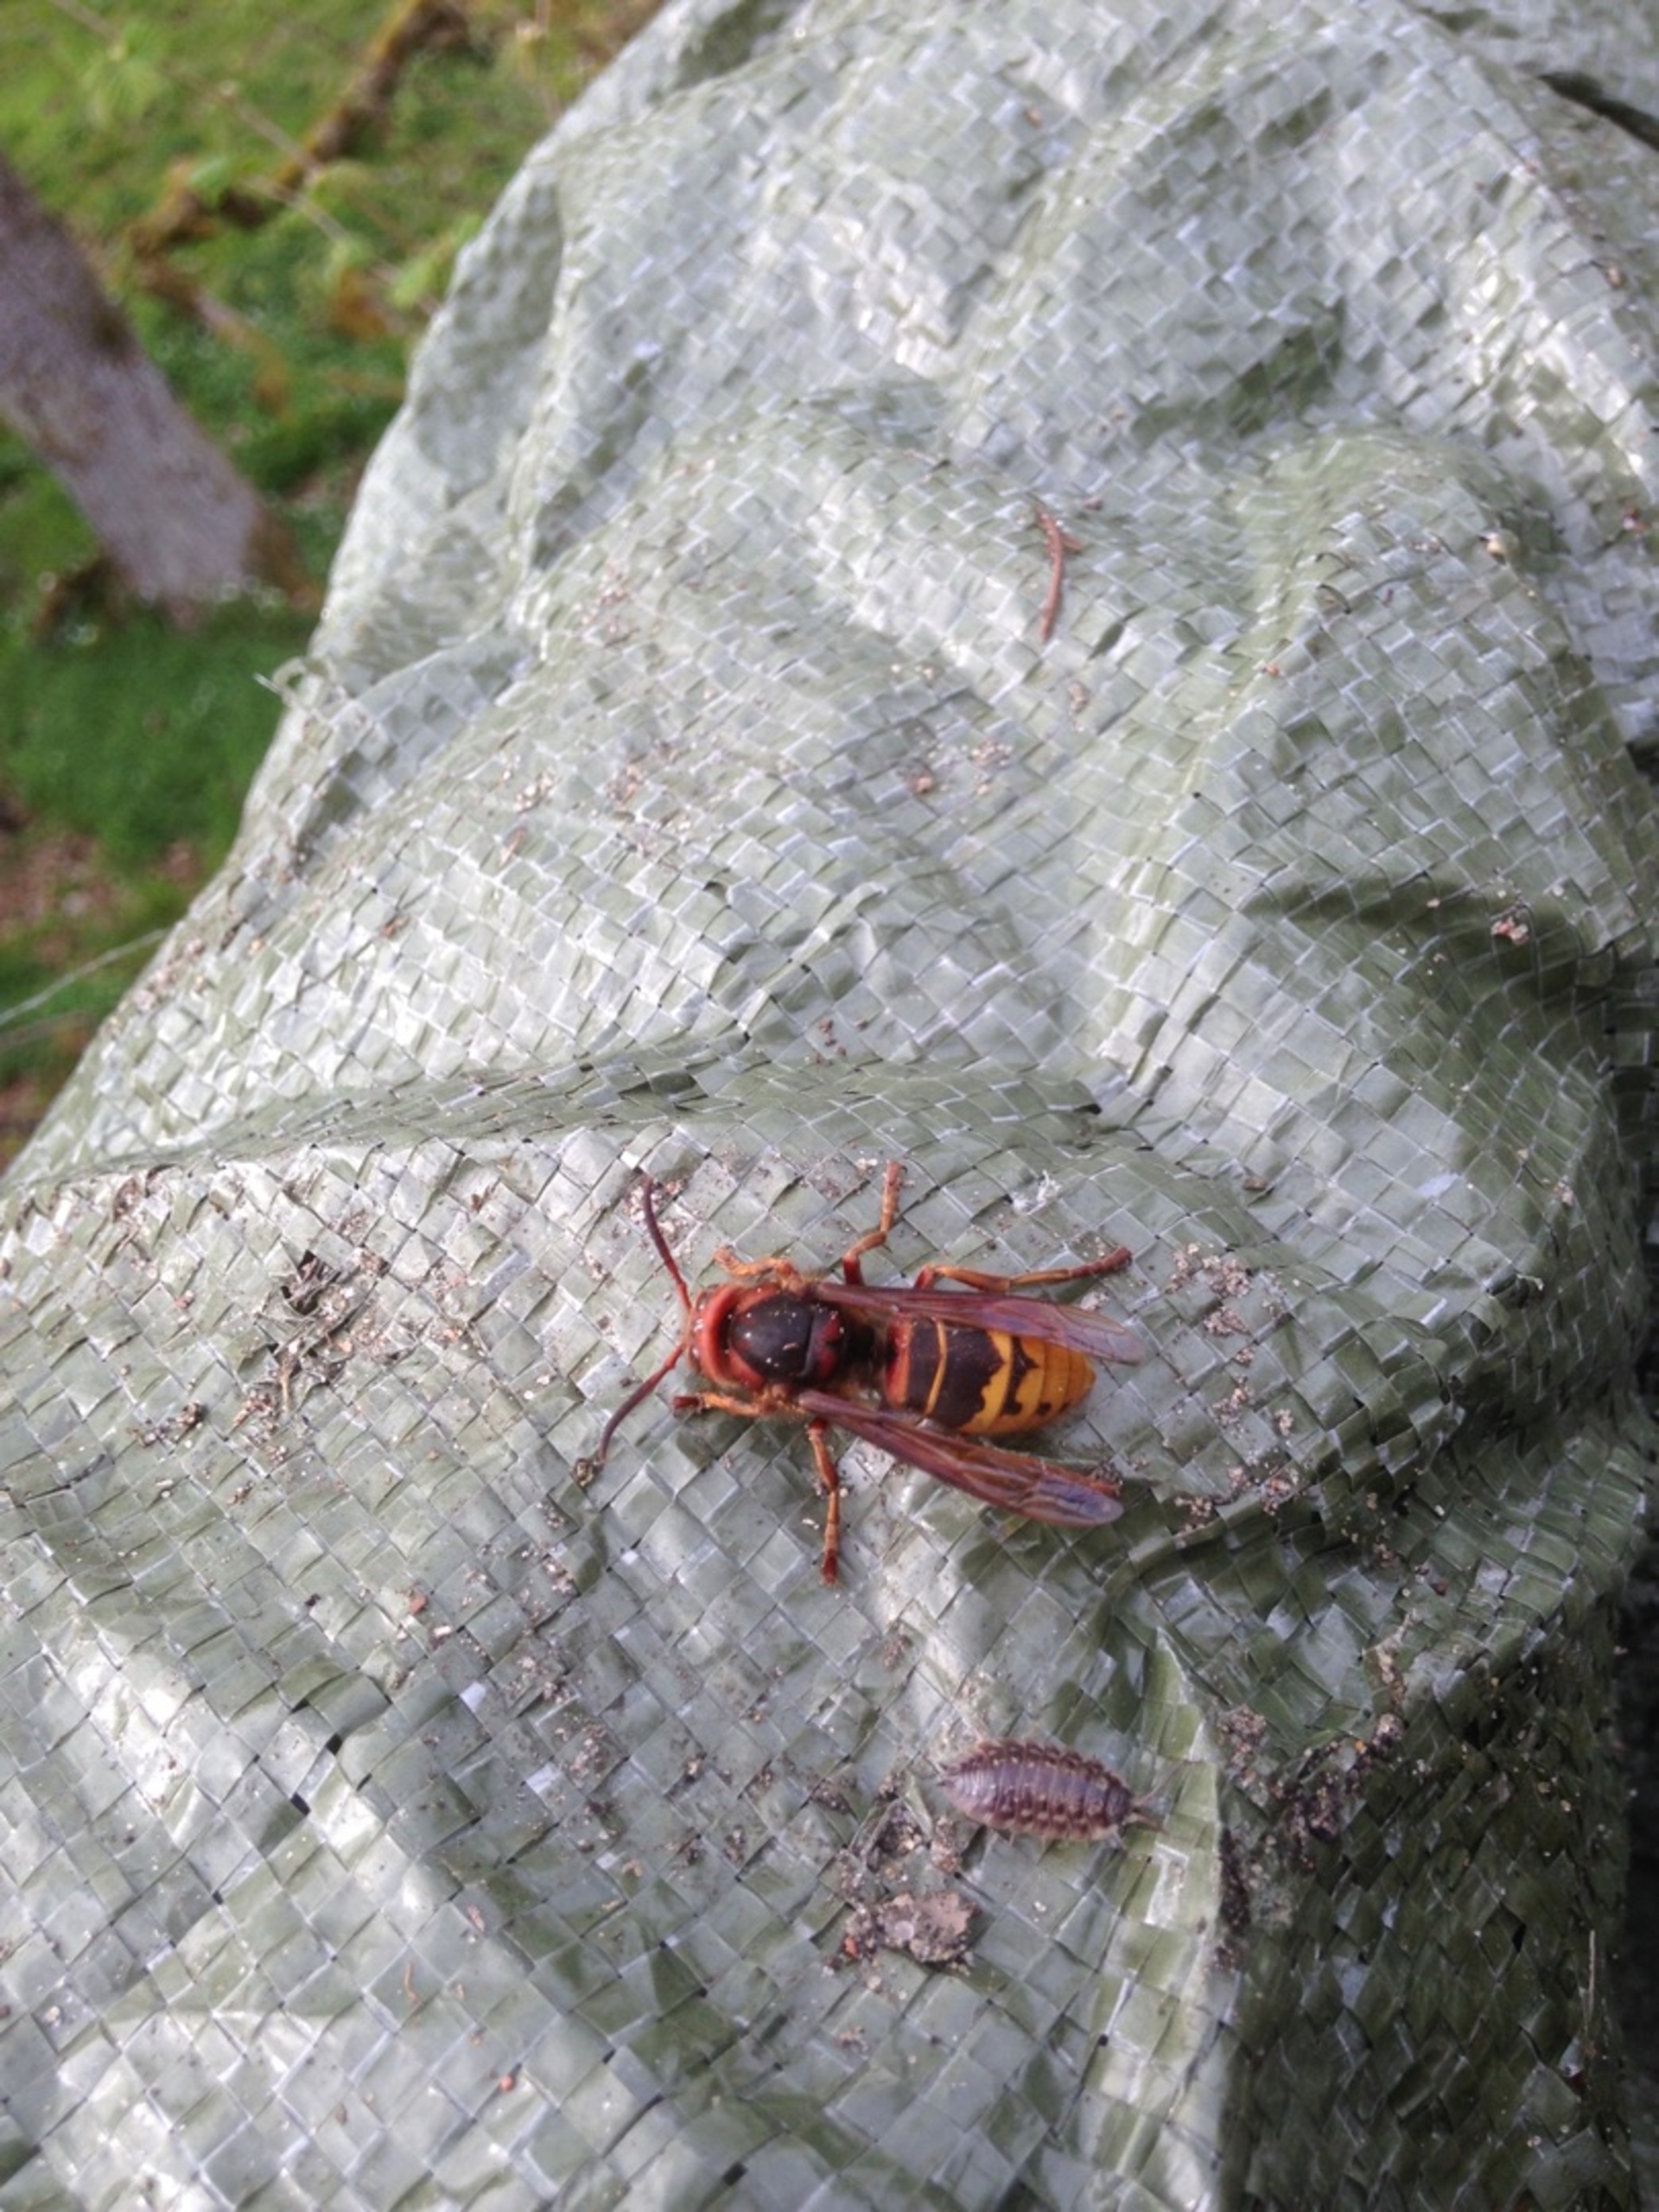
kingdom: Animalia
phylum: Arthropoda
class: Insecta
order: Hymenoptera
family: Vespidae
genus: Vespa
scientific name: Vespa crabro
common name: Stor gedehams
